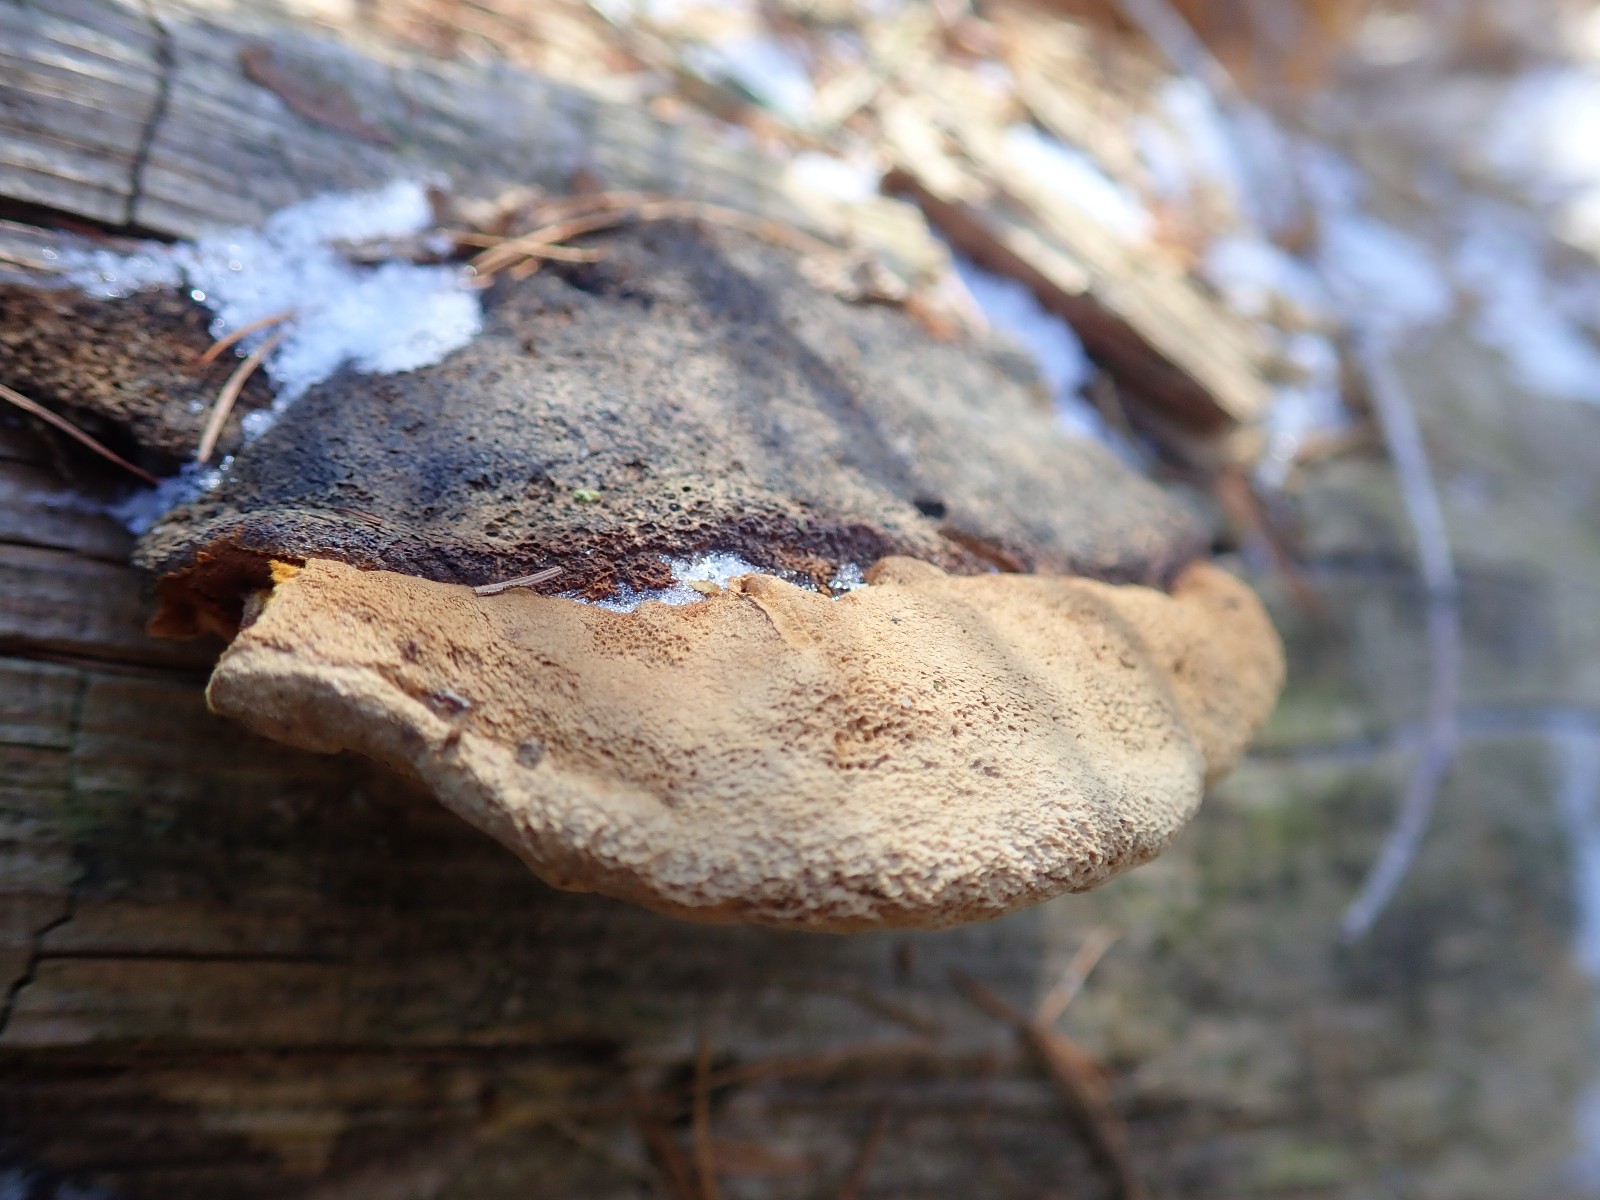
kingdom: Fungi
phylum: Basidiomycota
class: Agaricomycetes
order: Gloeophyllales
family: Gloeophyllaceae
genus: Gloeophyllum
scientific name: Gloeophyllum odoratum
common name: duftende korkhat
